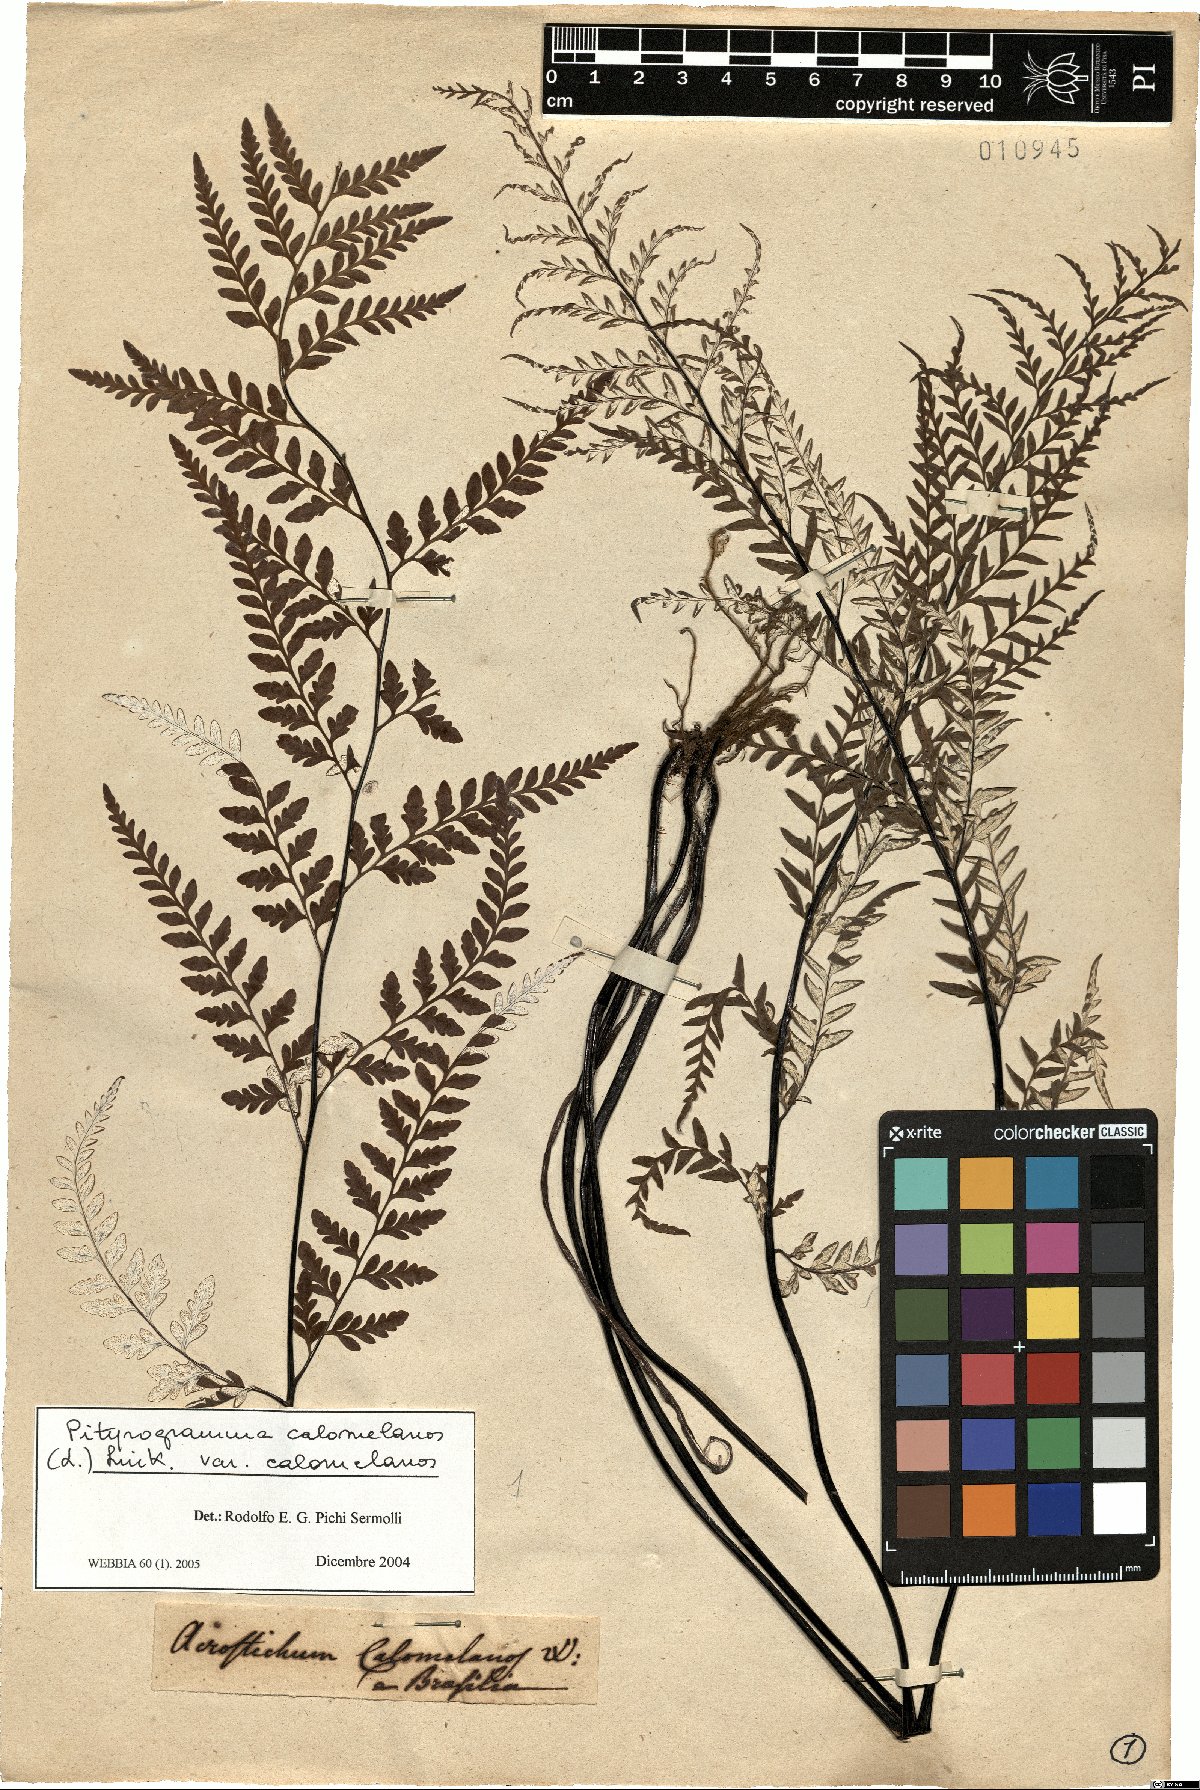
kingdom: Plantae
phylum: Tracheophyta
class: Polypodiopsida
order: Polypodiales
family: Pteridaceae
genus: Pityrogramma
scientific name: Pityrogramma calomelanos
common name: Dixie silverback fern
